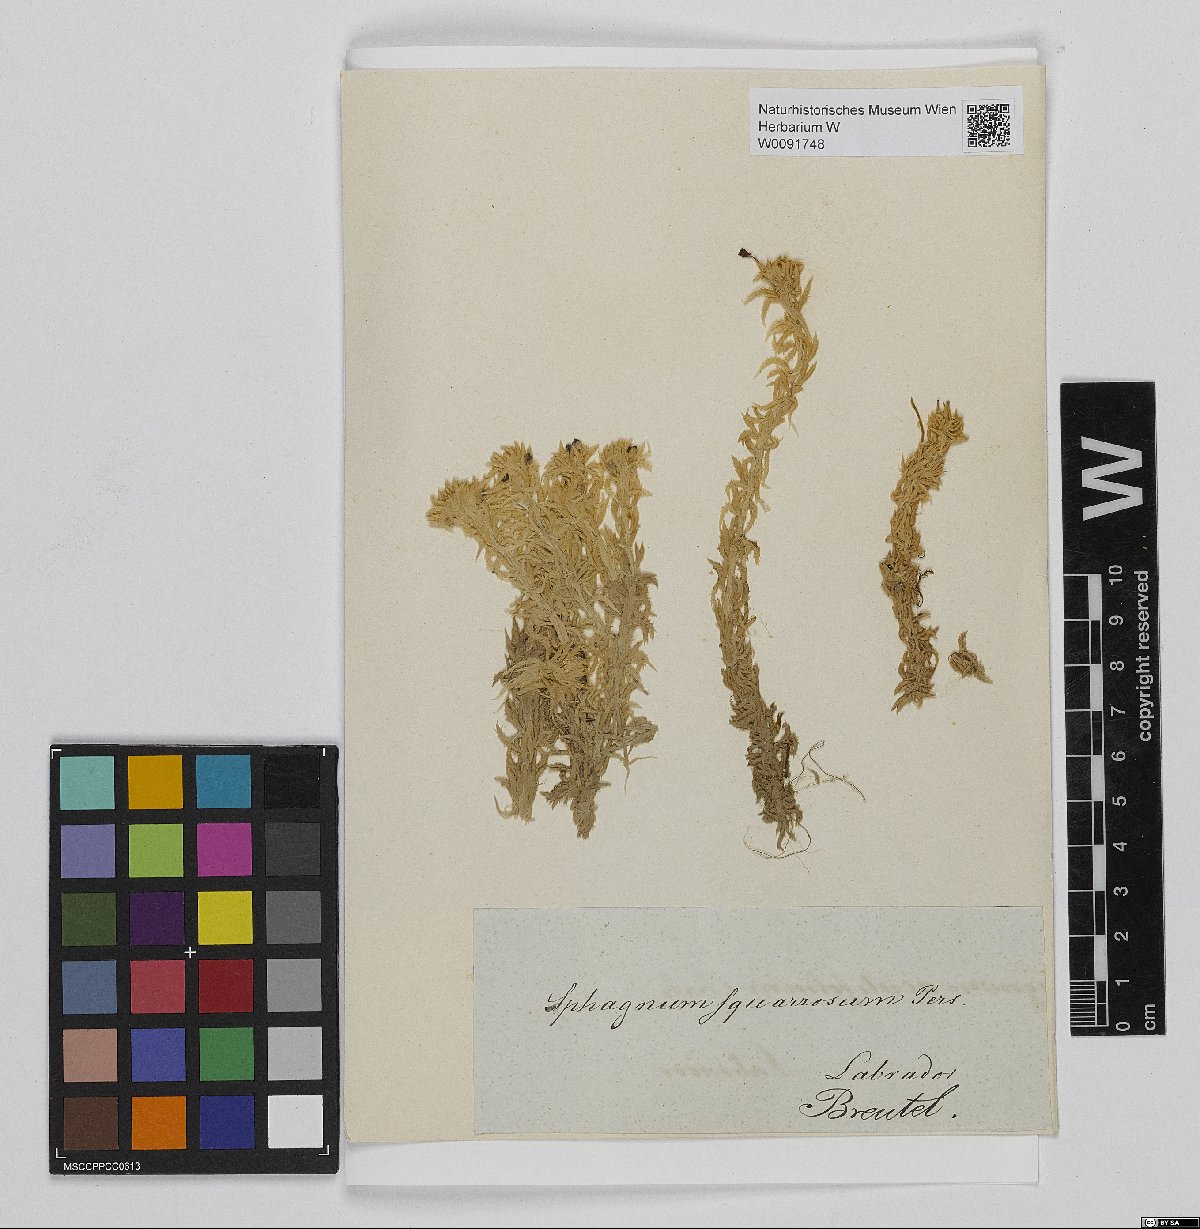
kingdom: Plantae
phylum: Bryophyta
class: Sphagnopsida
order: Sphagnales
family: Sphagnaceae
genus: Sphagnum
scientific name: Sphagnum squarrosum
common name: Shaggy peat moss
